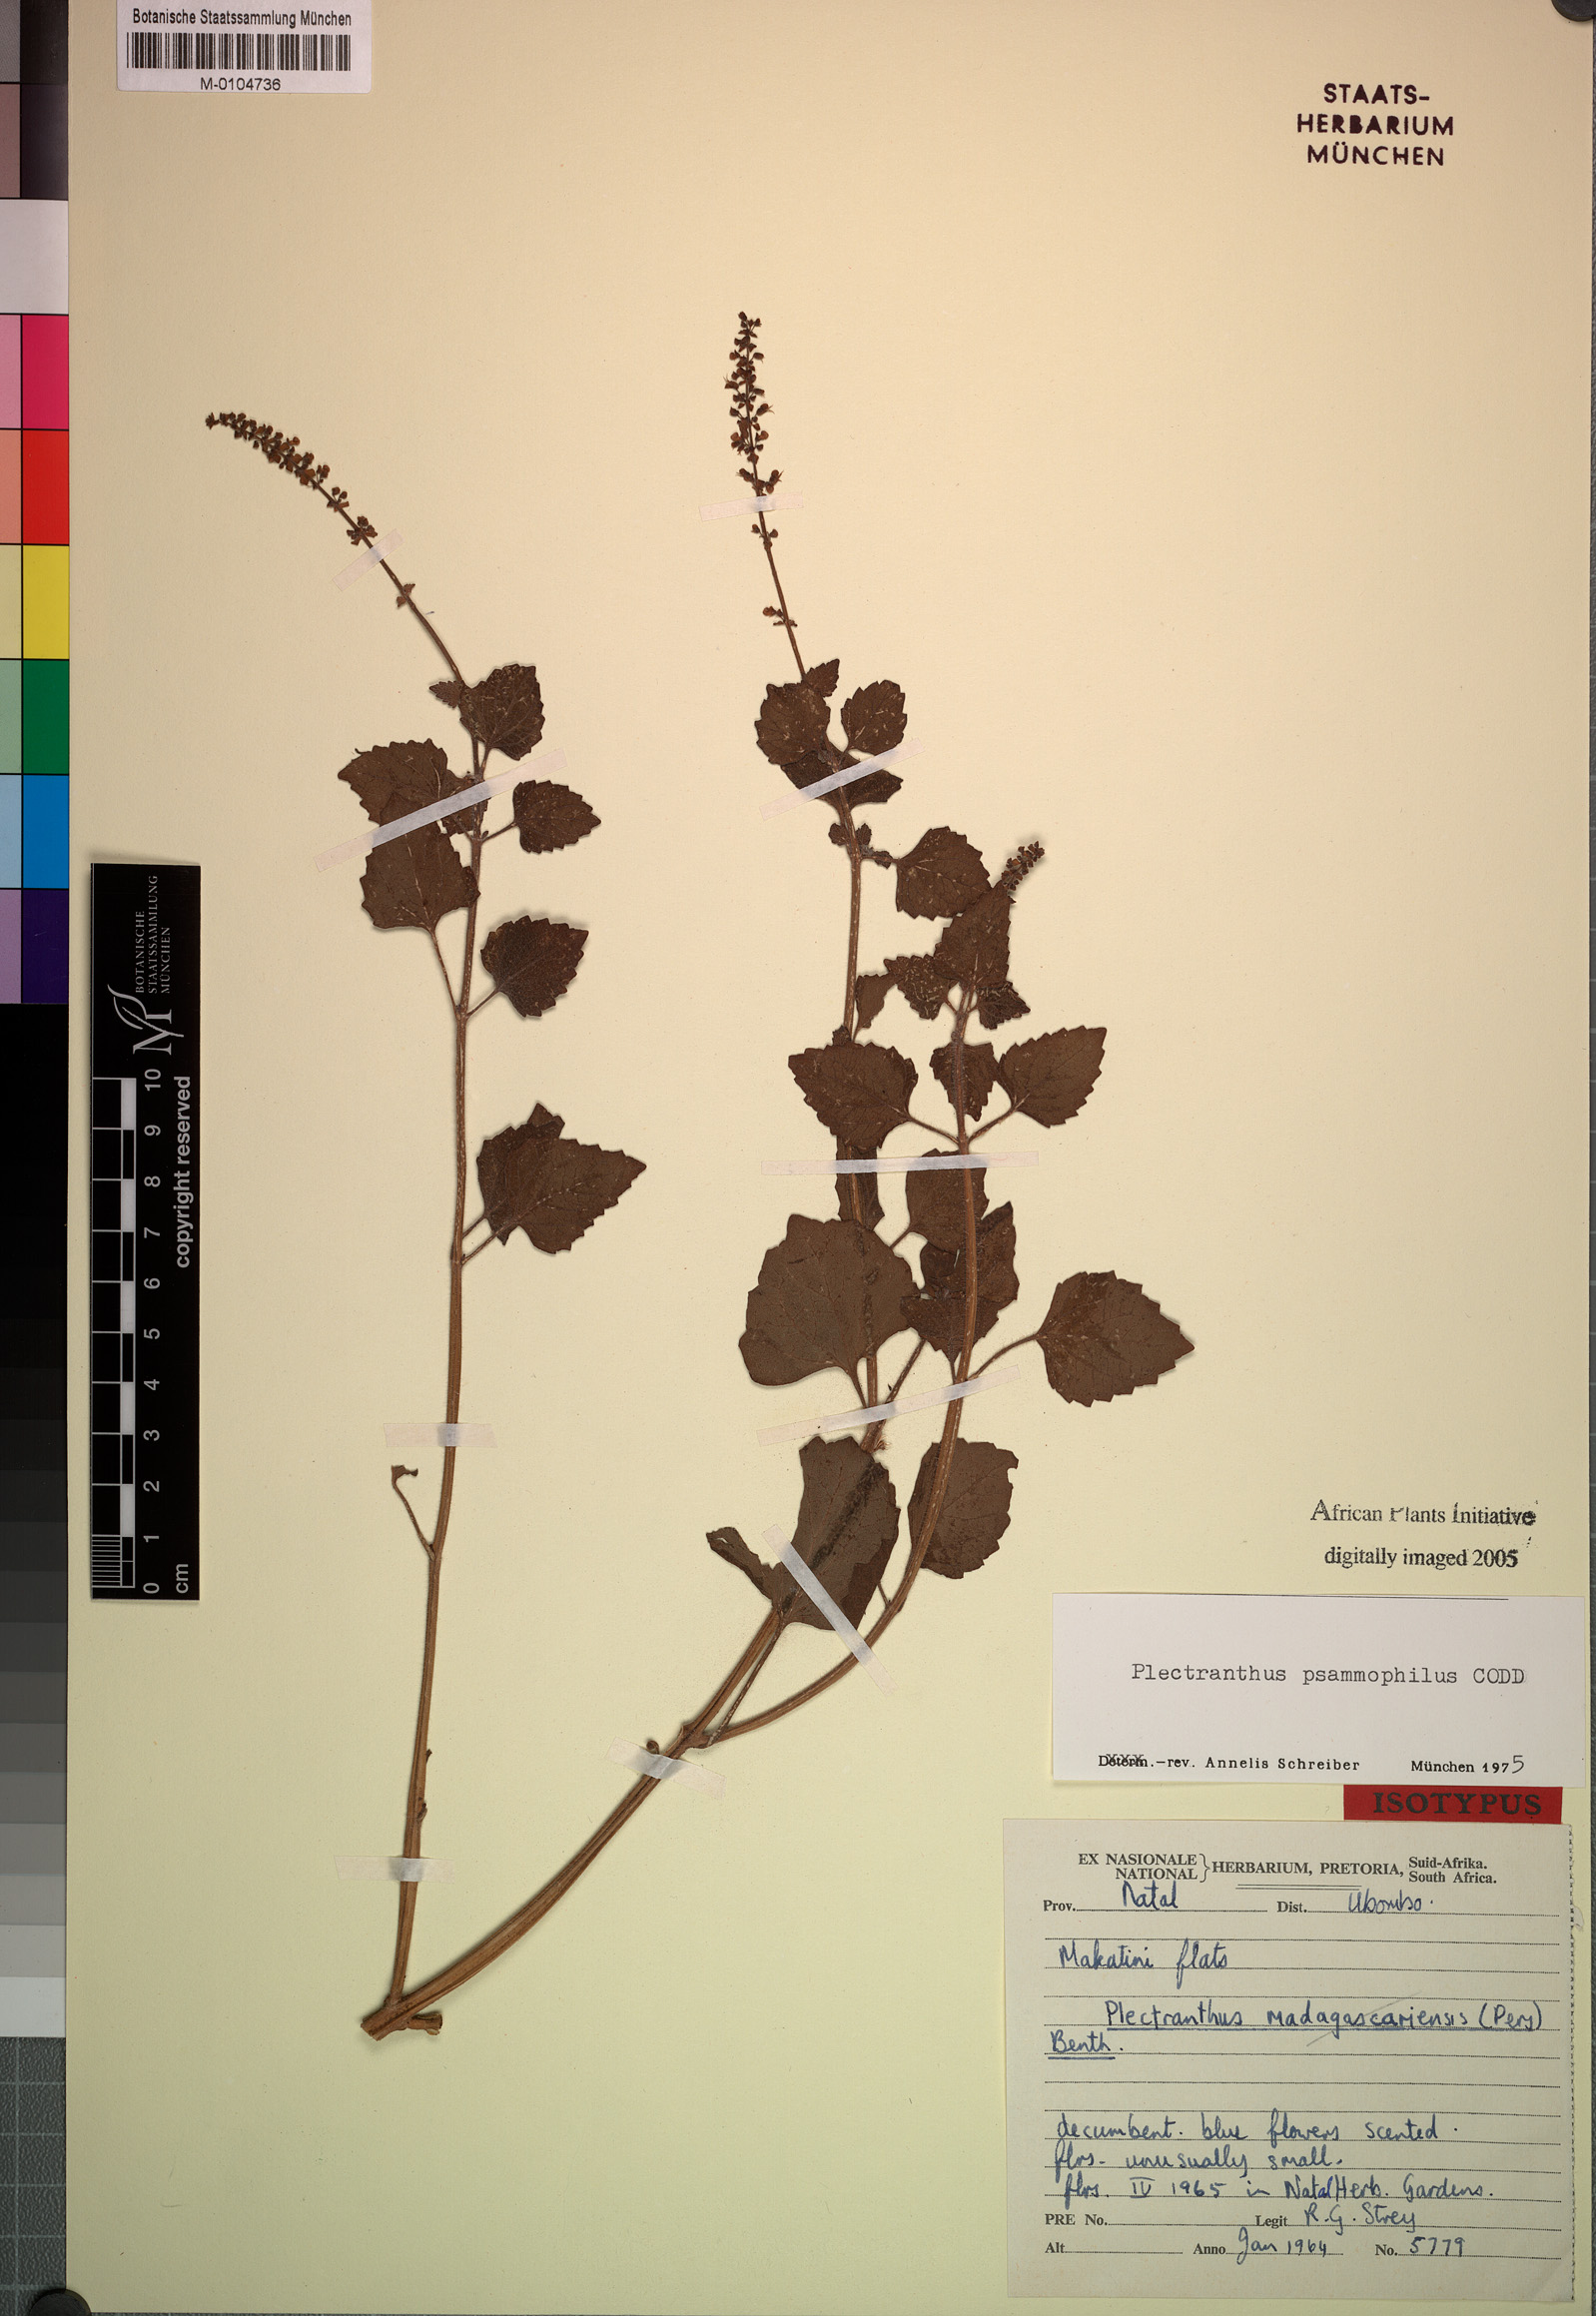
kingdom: Plantae
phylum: Tracheophyta
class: Magnoliopsida
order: Lamiales
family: Lamiaceae
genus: Coleus
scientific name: Coleus psammophilus
